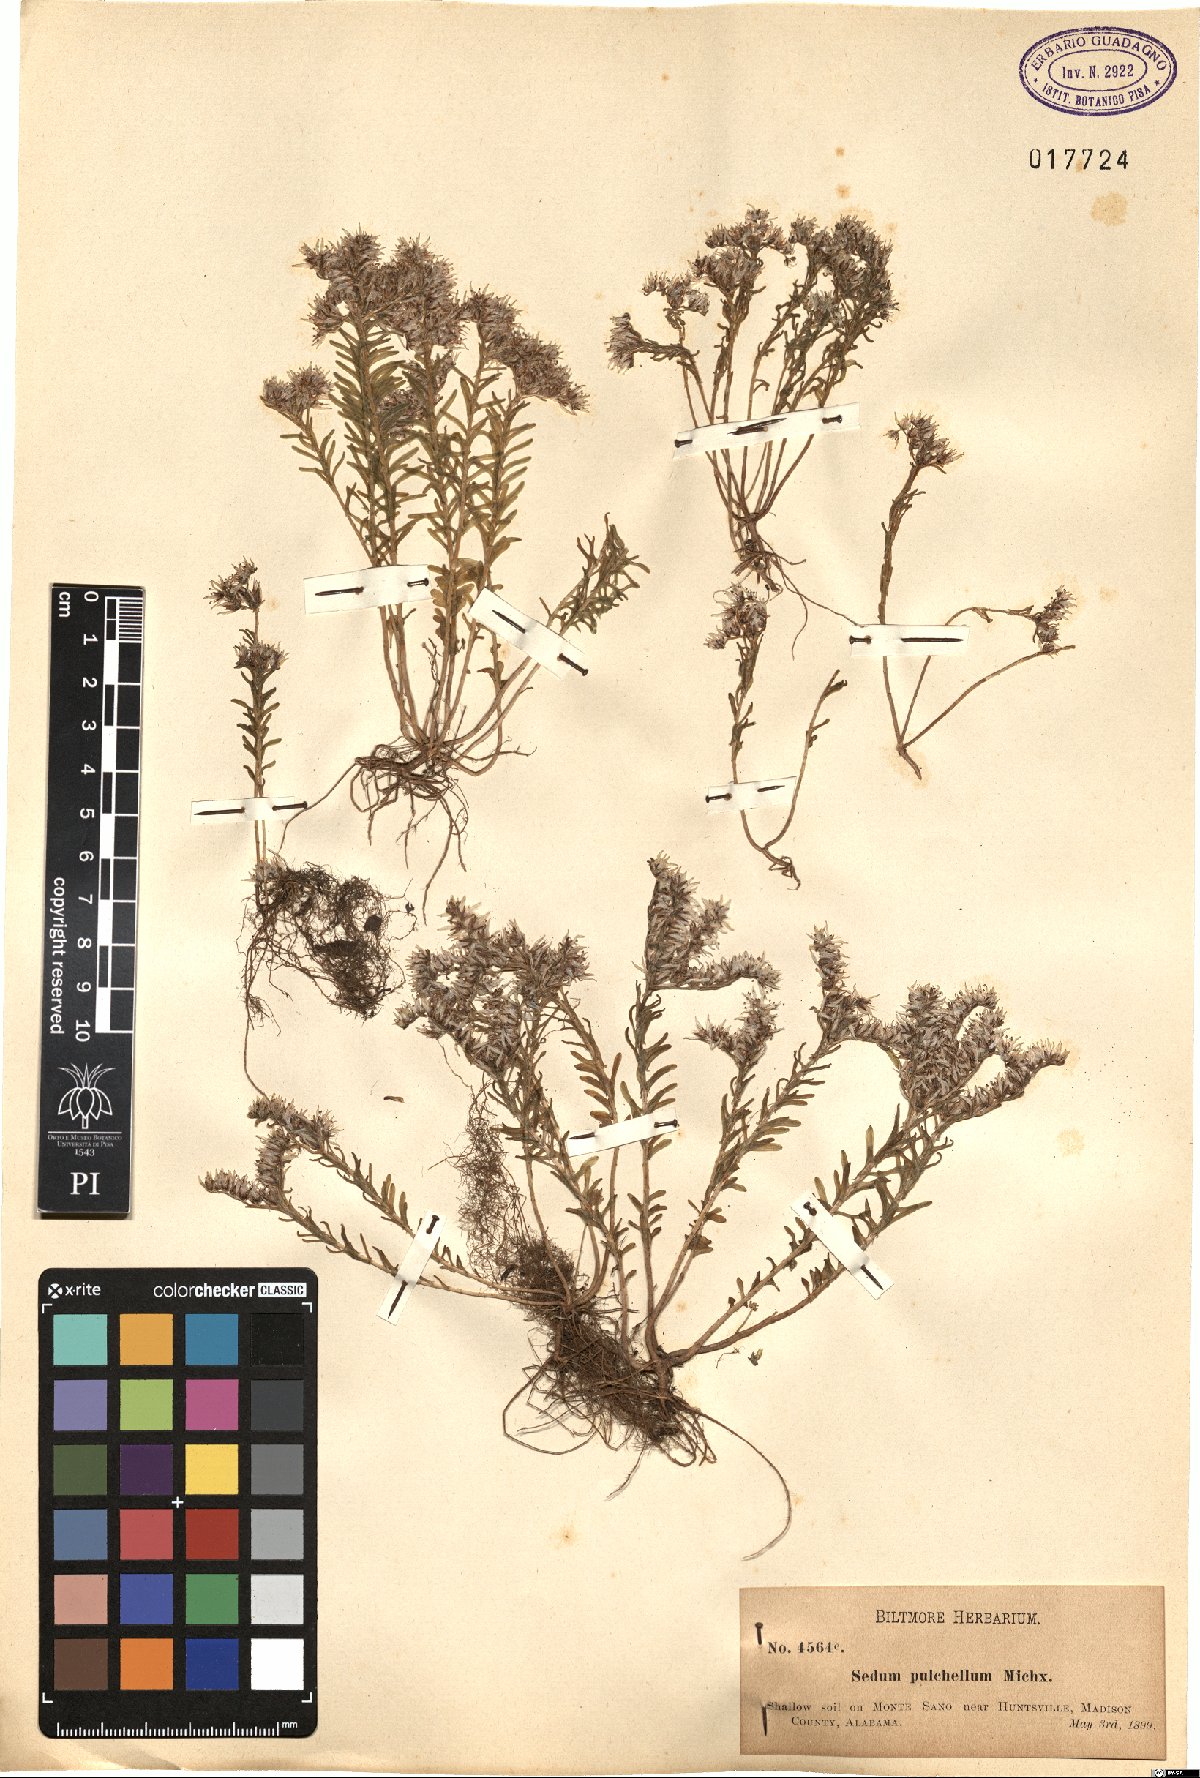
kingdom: Plantae
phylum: Tracheophyta
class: Magnoliopsida
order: Saxifragales
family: Crassulaceae
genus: Sedum
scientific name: Sedum pulchellum
